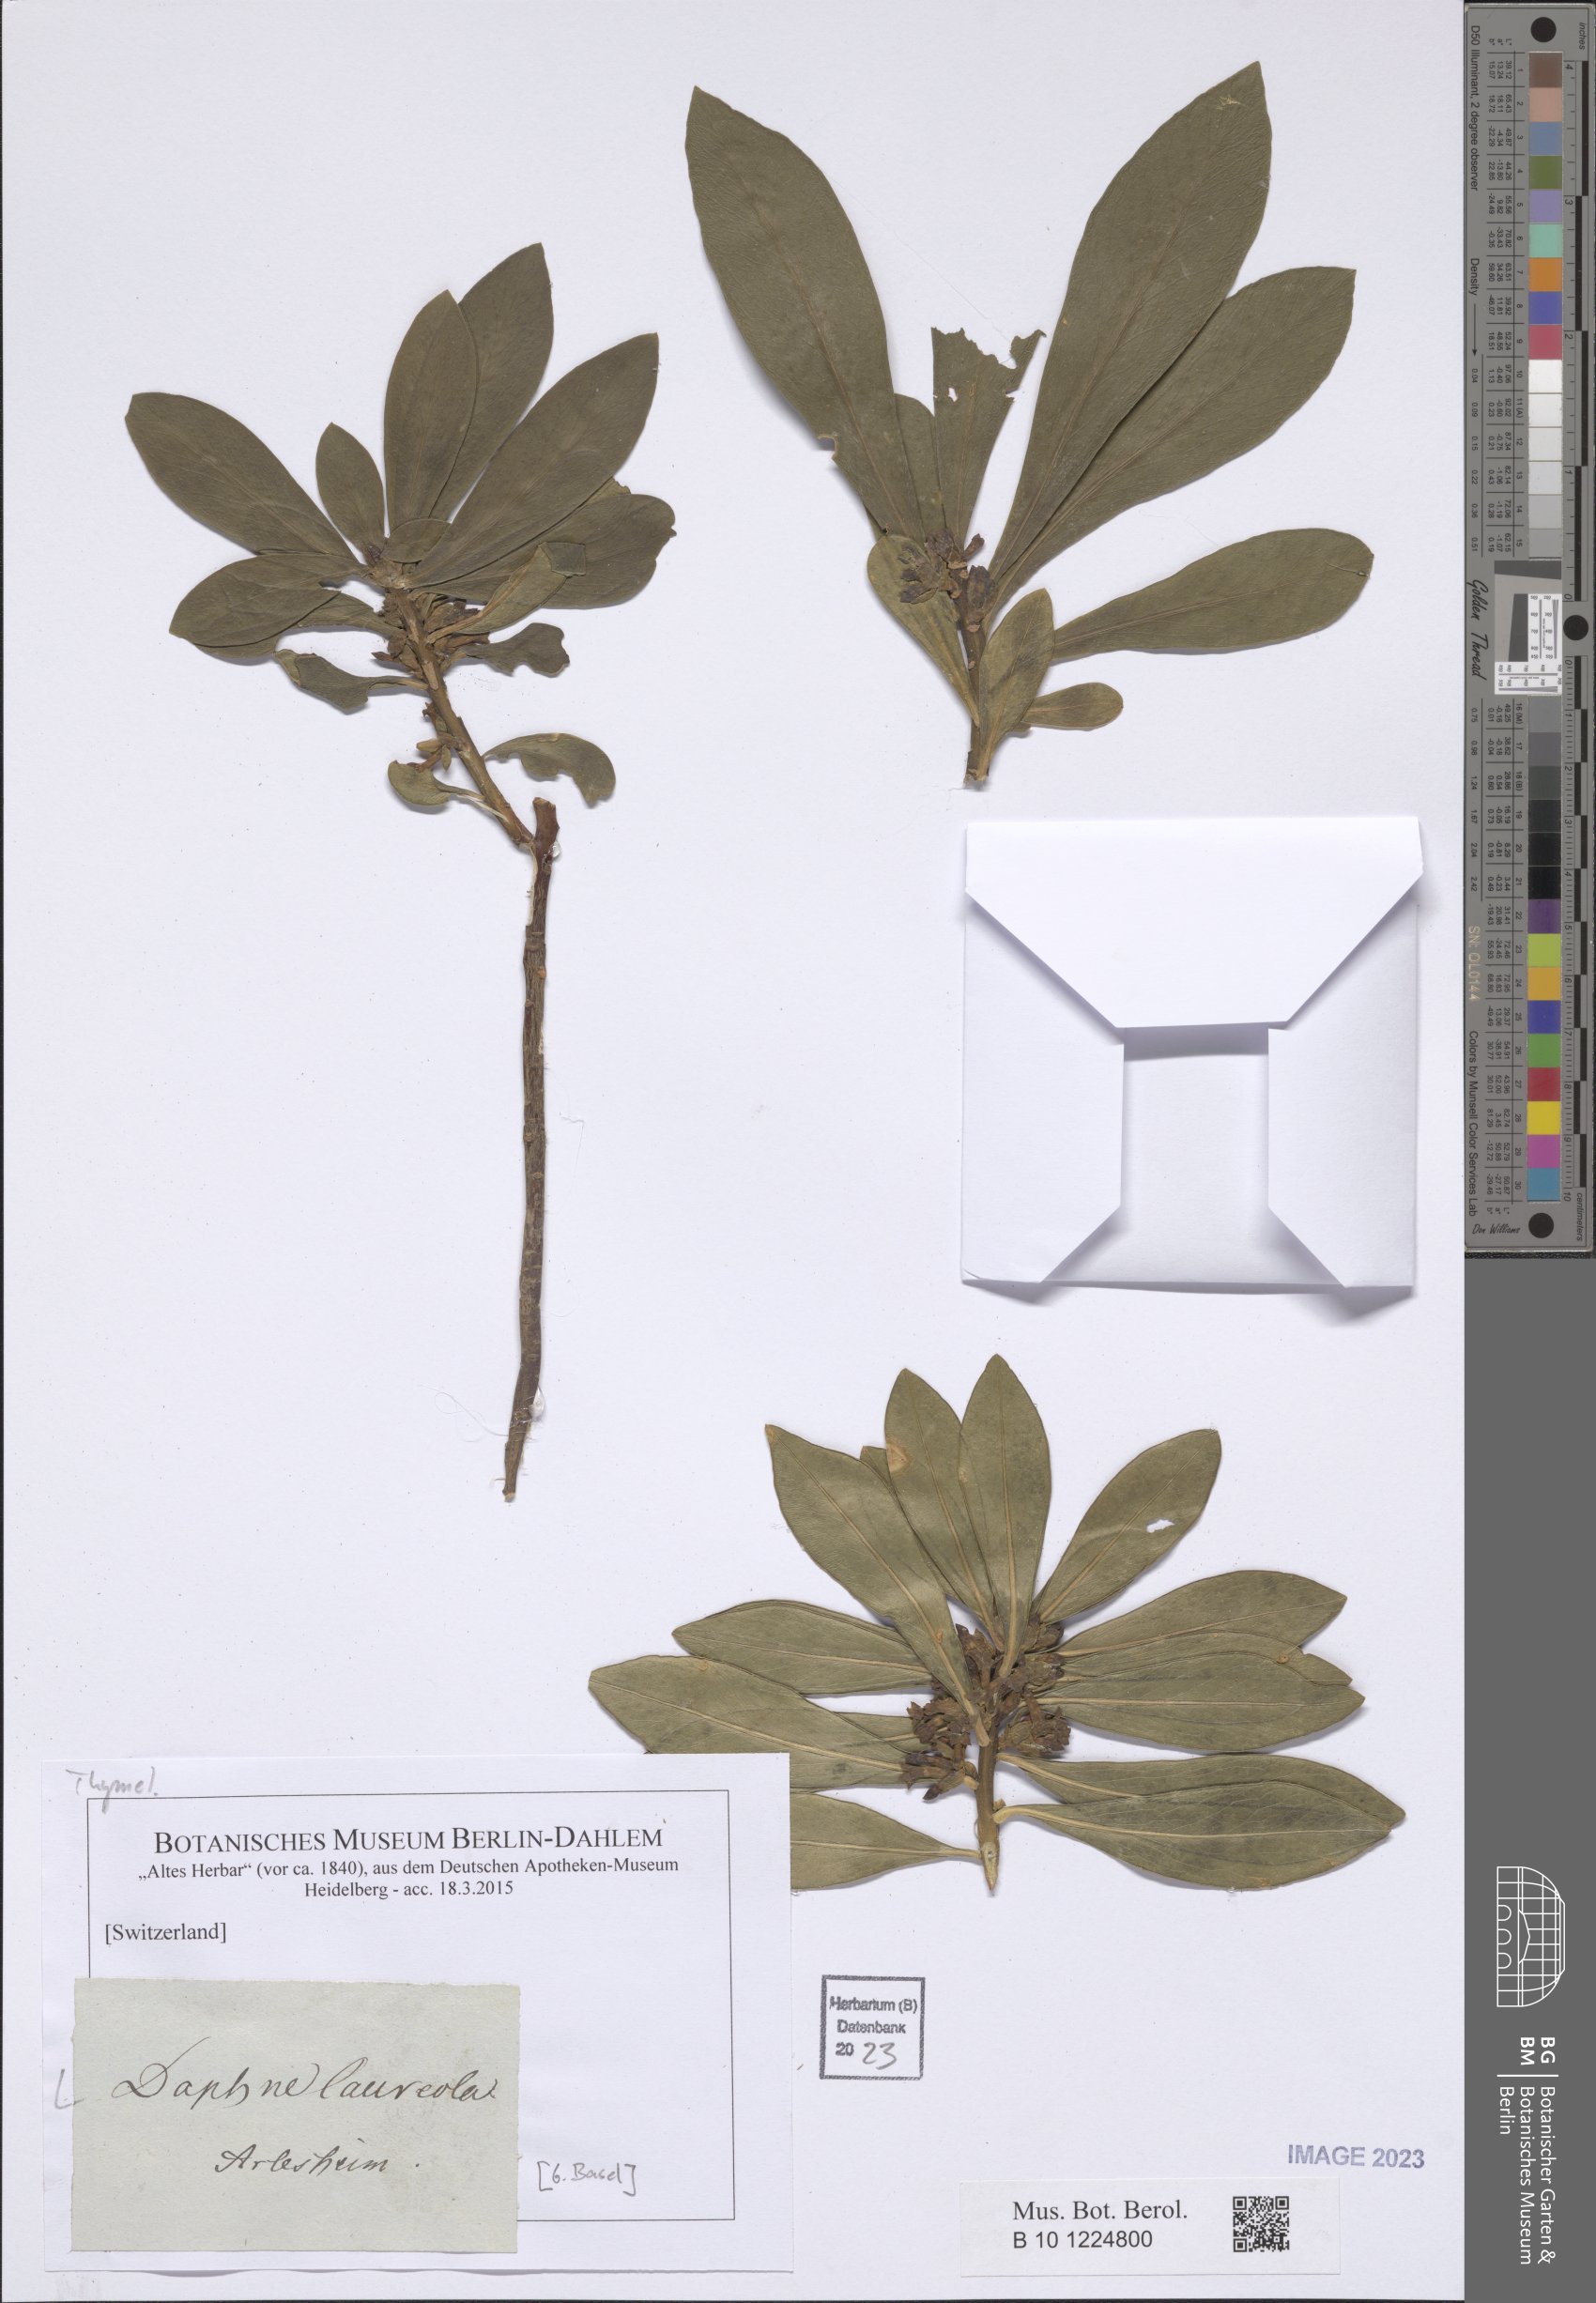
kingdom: Plantae
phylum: Tracheophyta
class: Magnoliopsida
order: Malvales
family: Thymelaeaceae
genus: Daphne
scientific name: Daphne laureola
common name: Spurge-laurel
